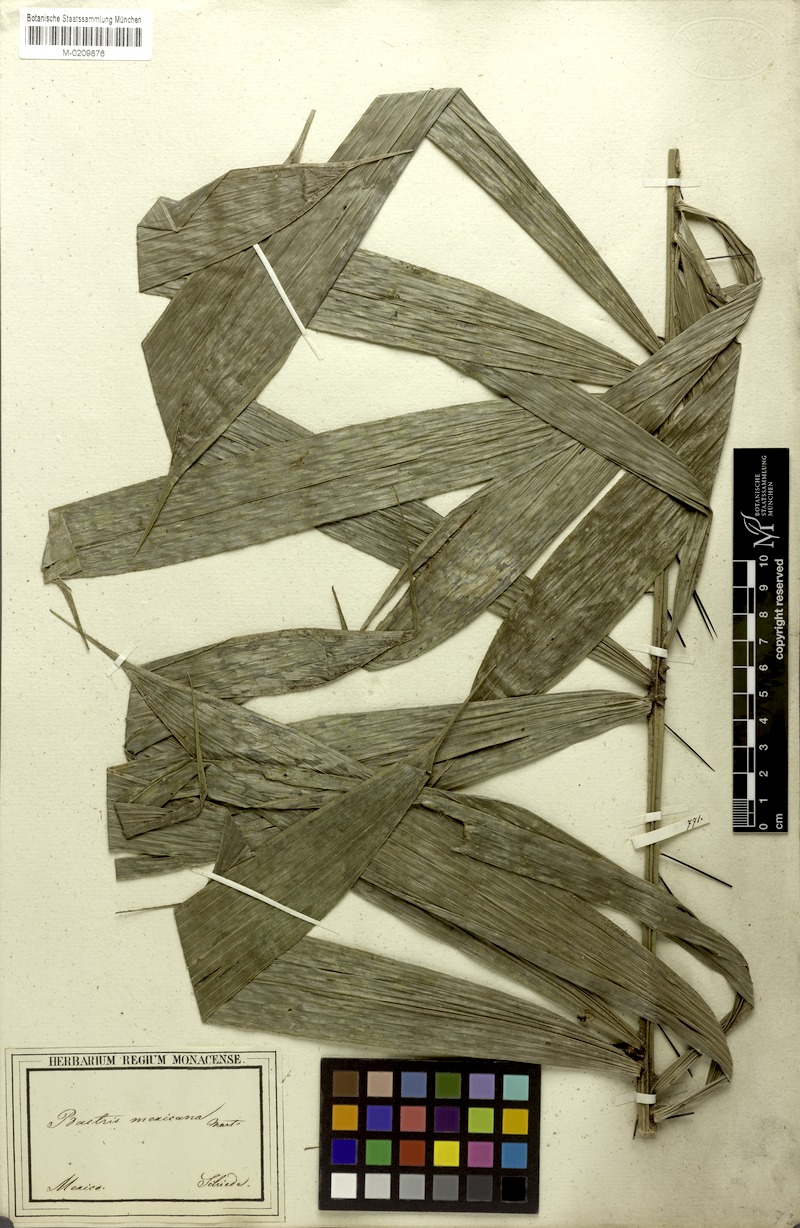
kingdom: Plantae
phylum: Tracheophyta
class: Liliopsida
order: Arecales
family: Arecaceae
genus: Bactris
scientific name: Bactris mexicana
